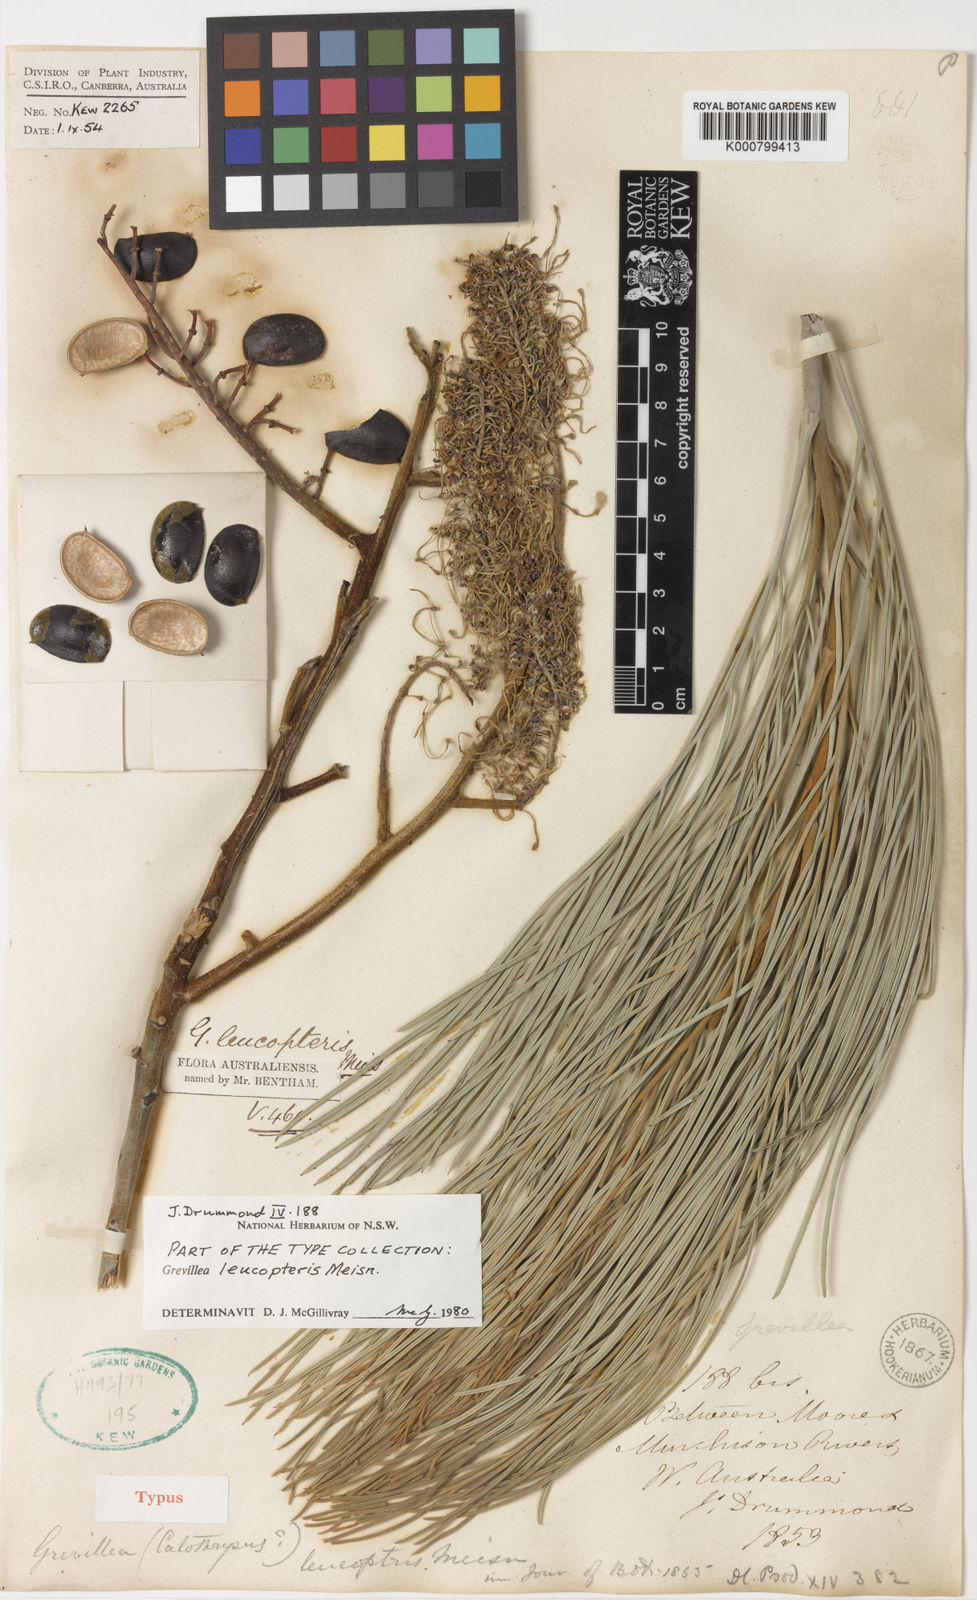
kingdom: Plantae
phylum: Tracheophyta
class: Magnoliopsida
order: Proteales
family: Proteaceae
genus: Grevillea
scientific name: Grevillea leucopteris
